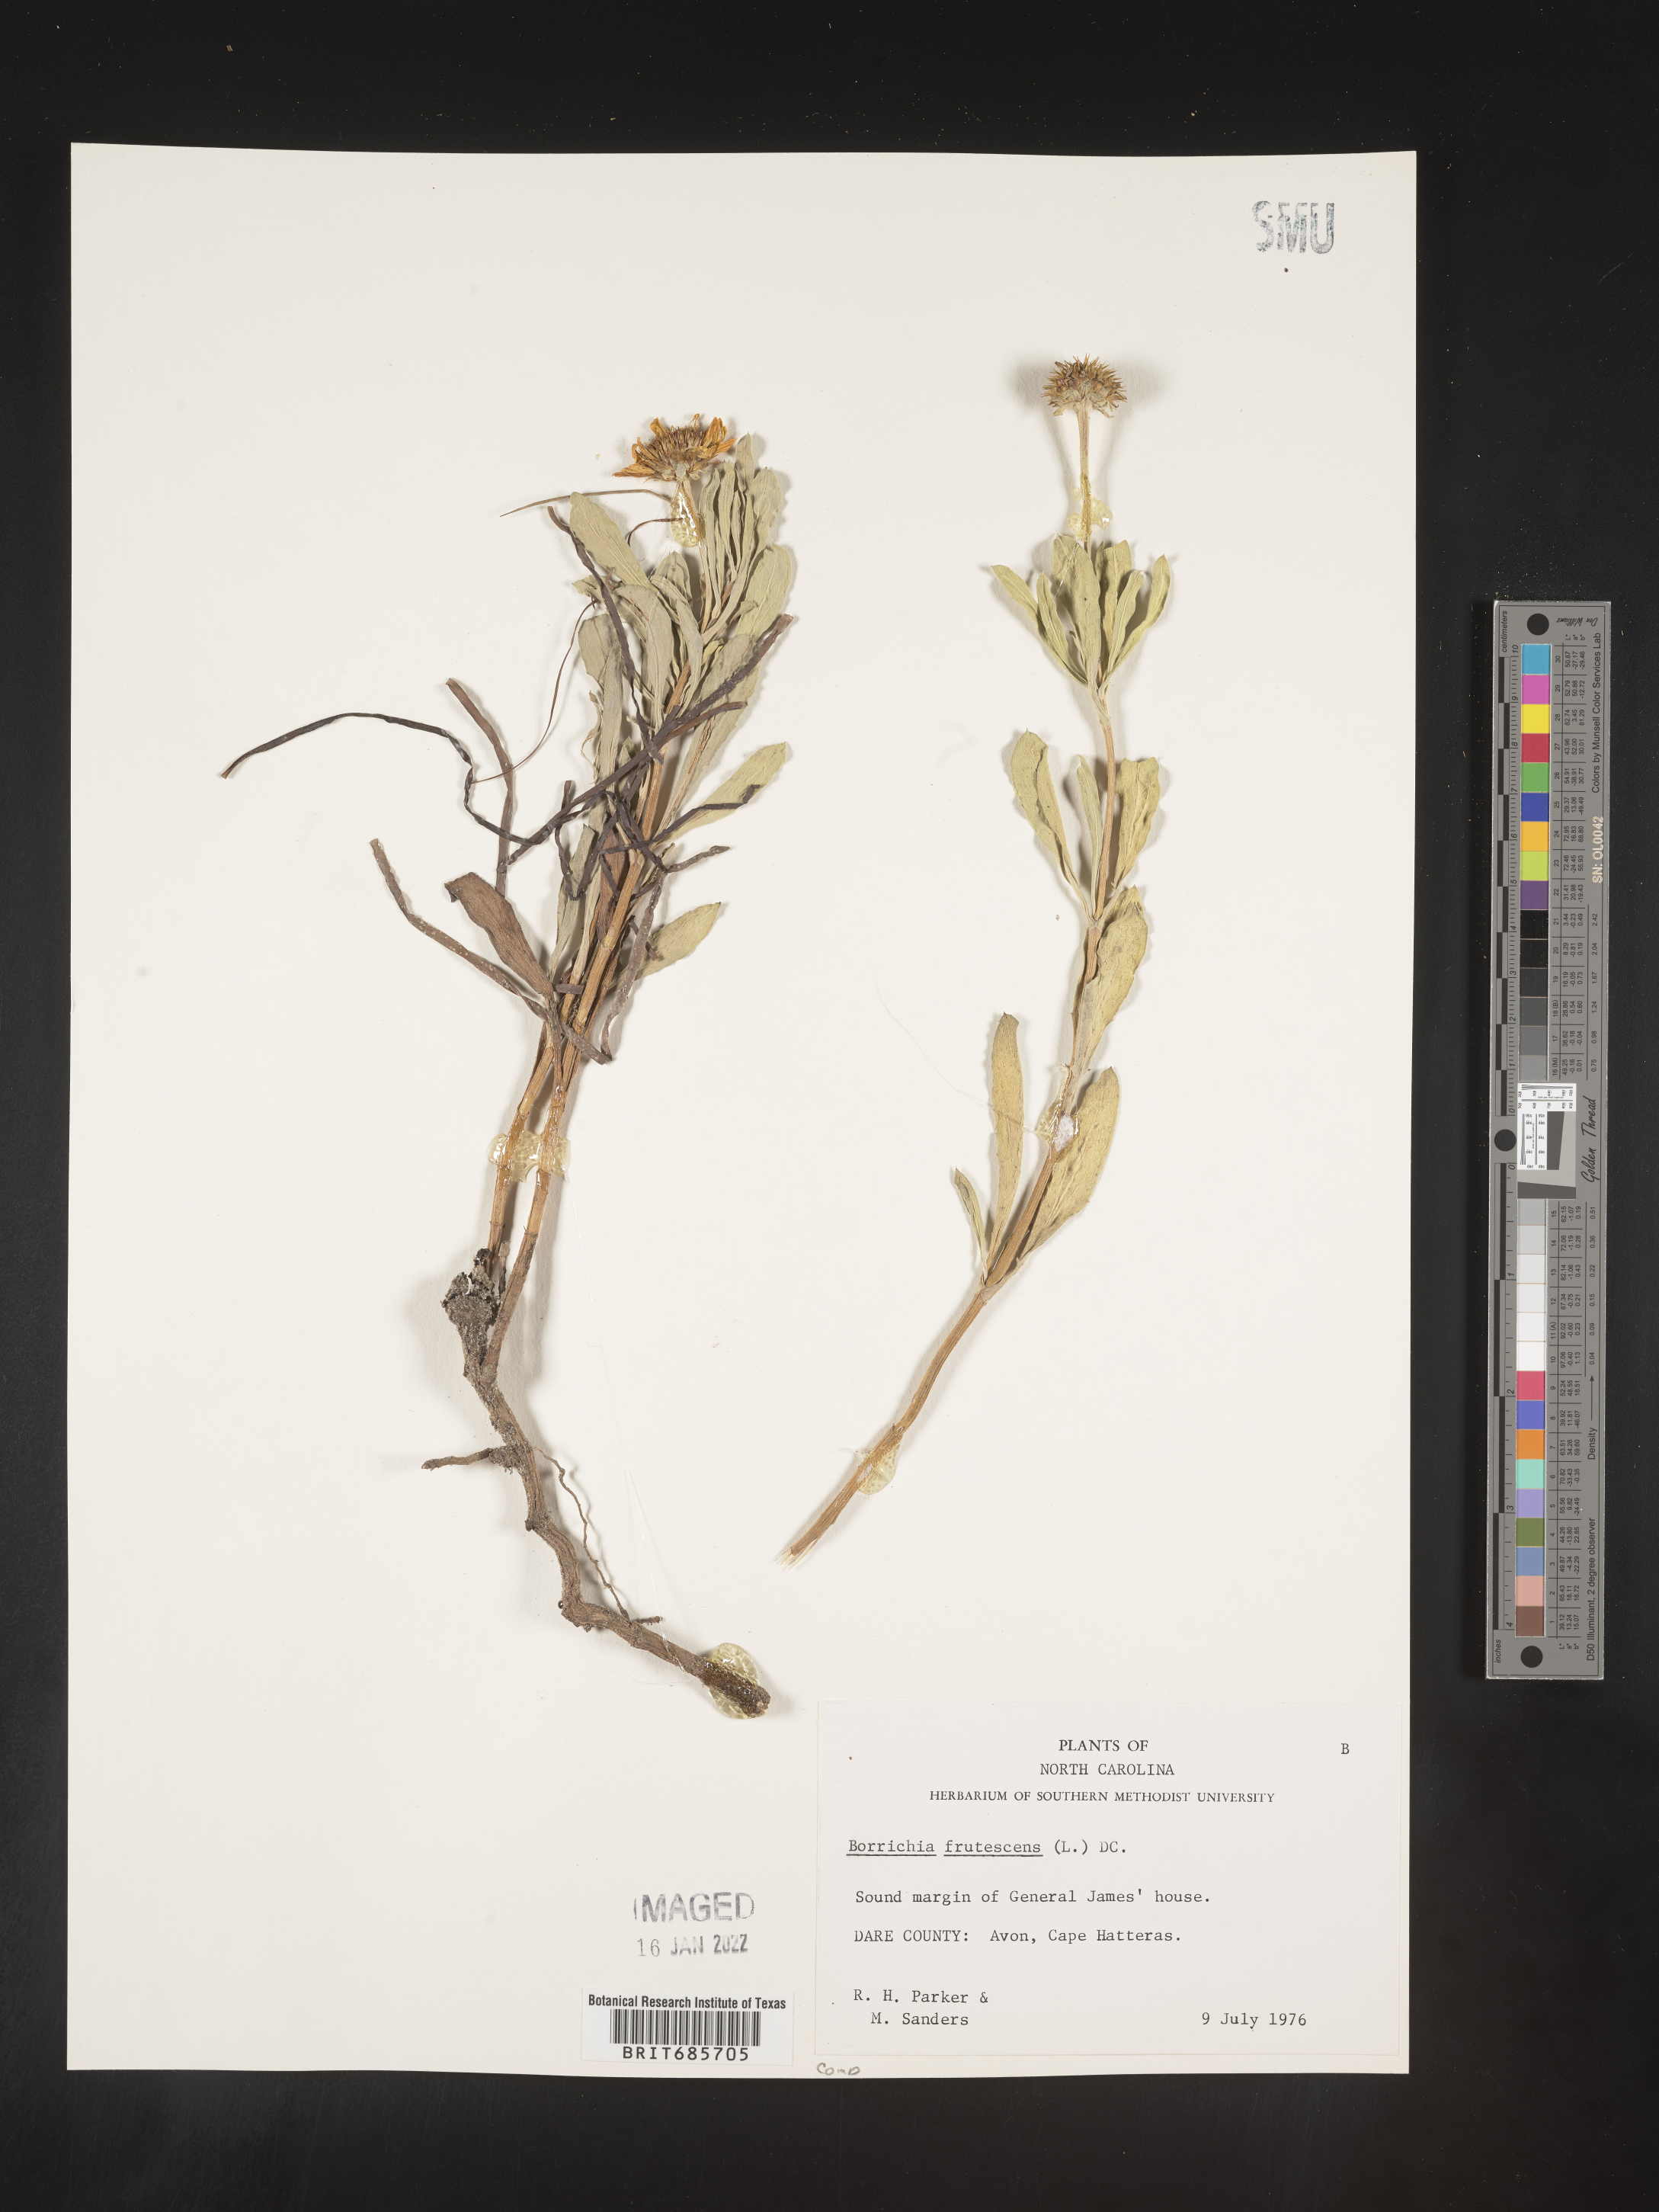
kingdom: Plantae
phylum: Tracheophyta
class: Magnoliopsida
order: Asterales
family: Asteraceae
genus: Borrichia
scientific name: Borrichia frutescens
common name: Sea oxeye
